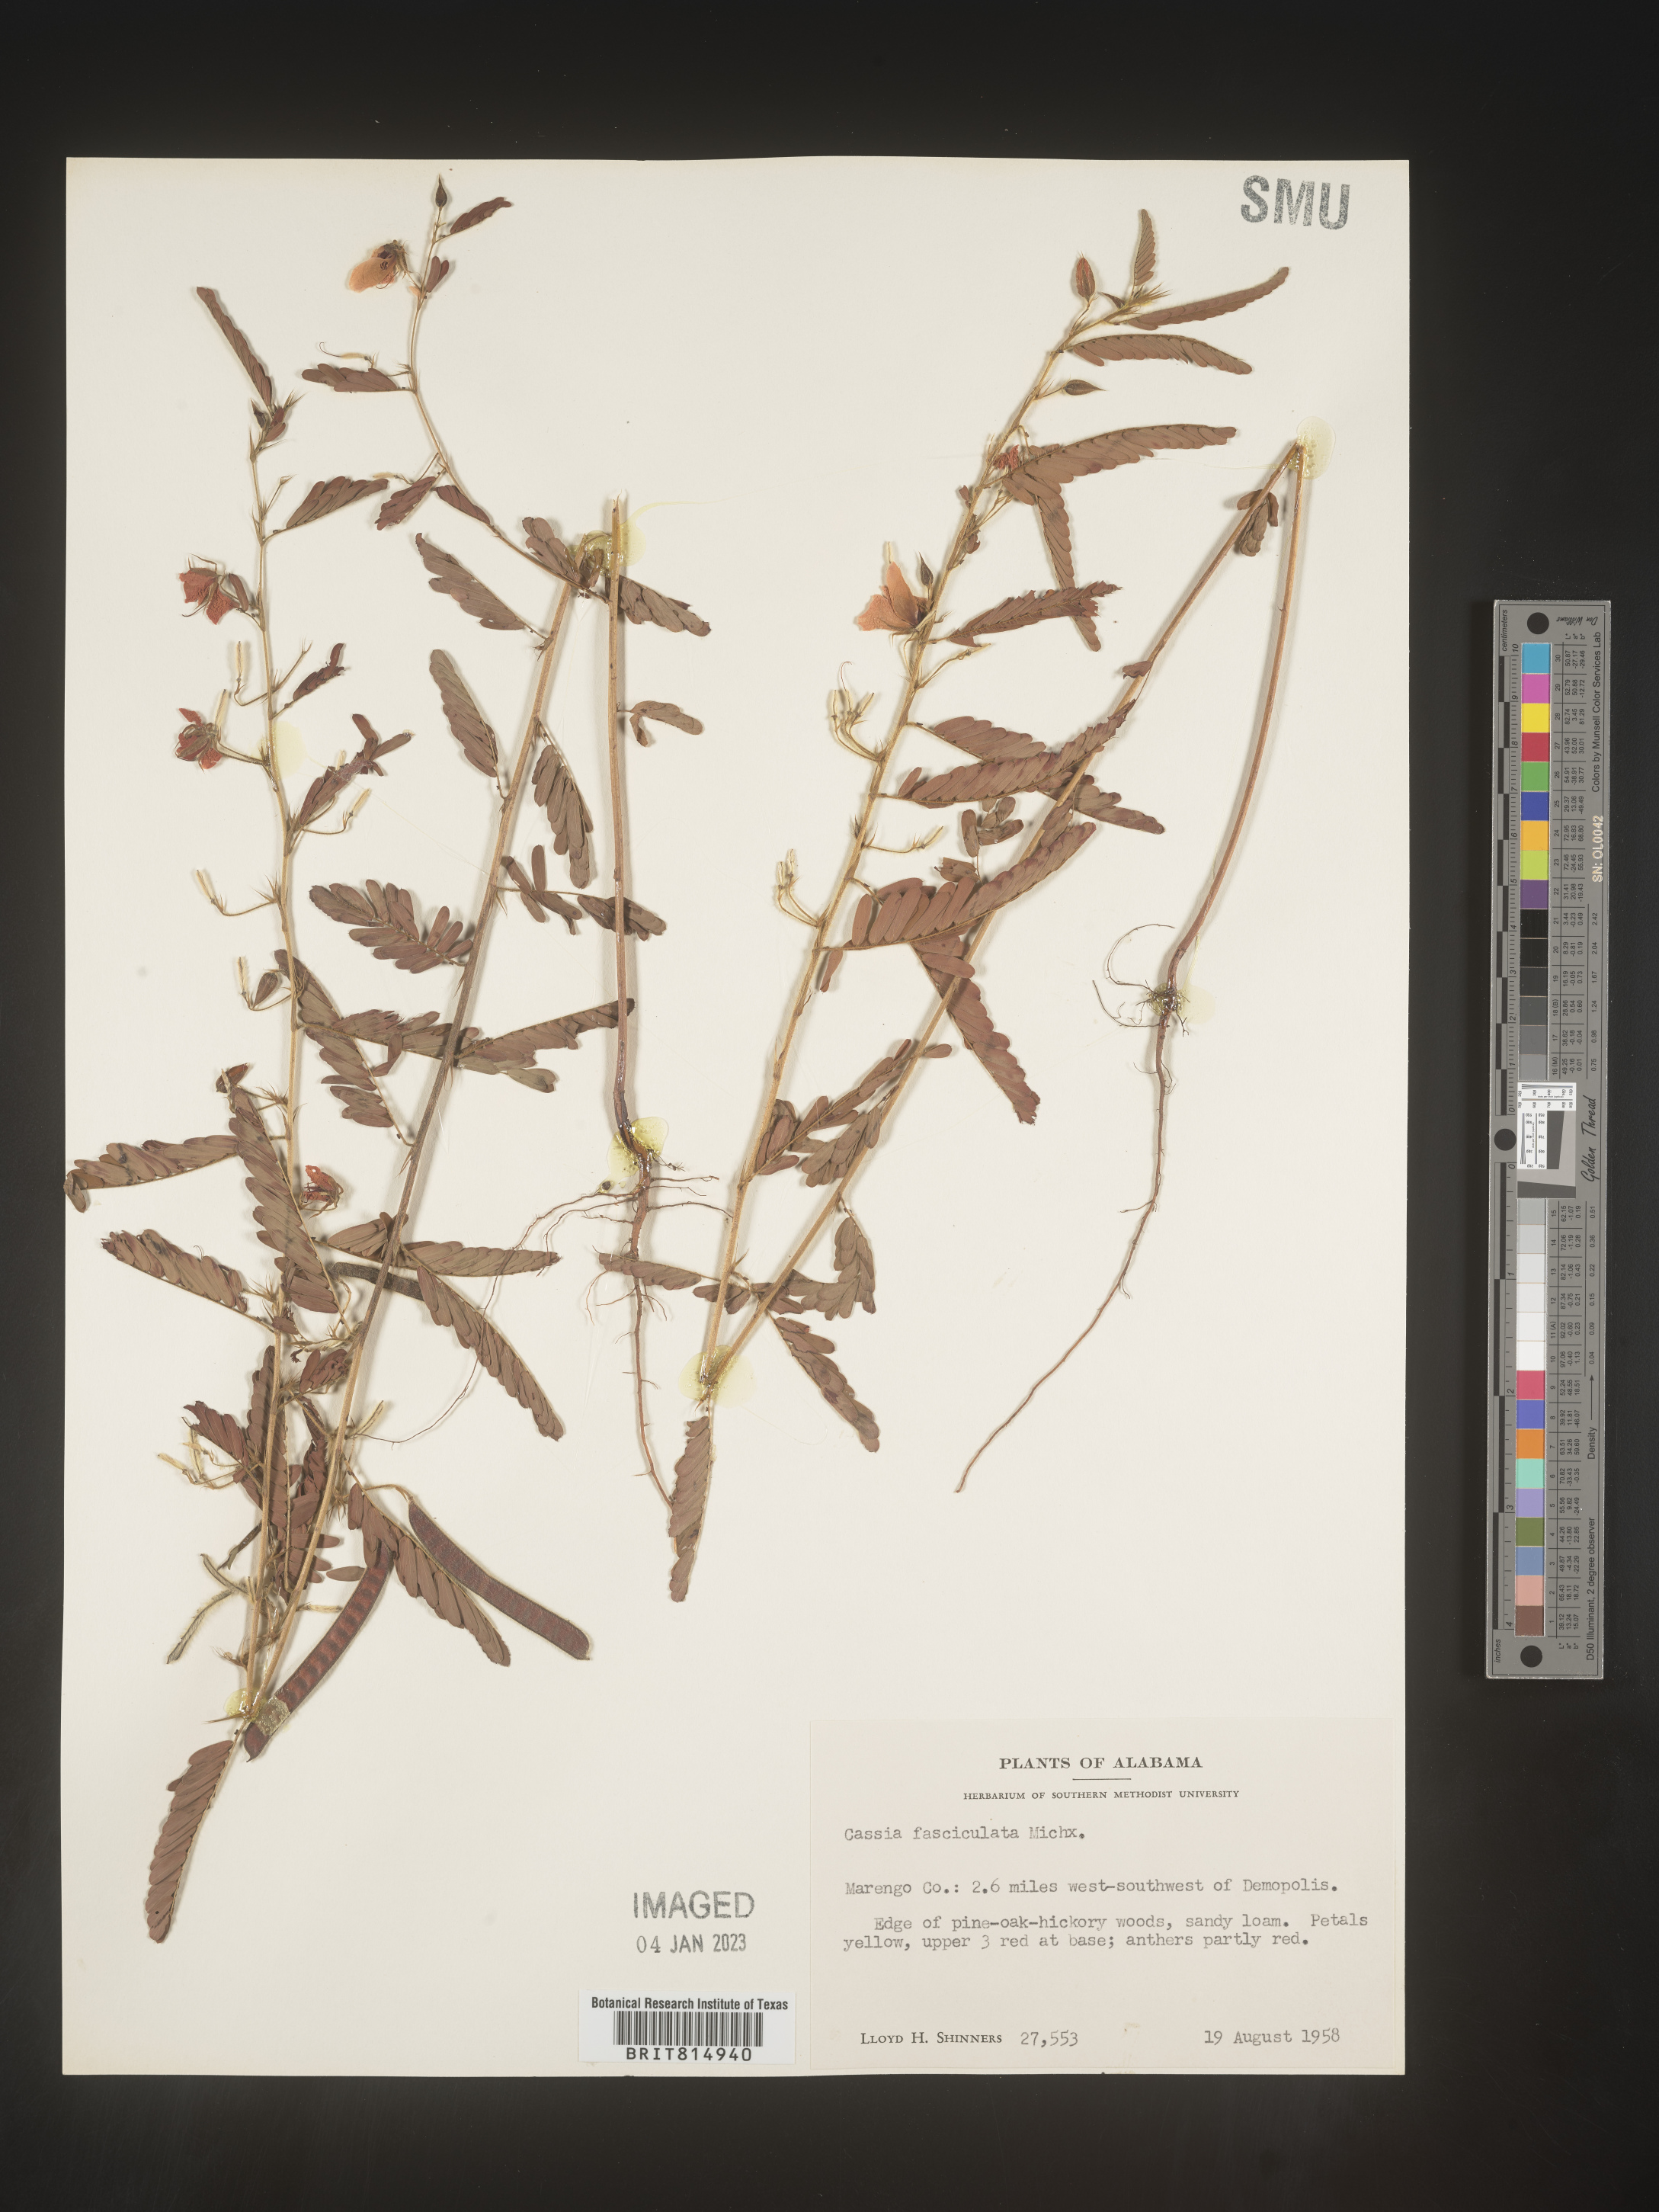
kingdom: Plantae
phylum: Tracheophyta
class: Magnoliopsida
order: Fabales
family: Fabaceae
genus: Chamaecrista
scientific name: Chamaecrista fasciculata
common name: Golden cassia
